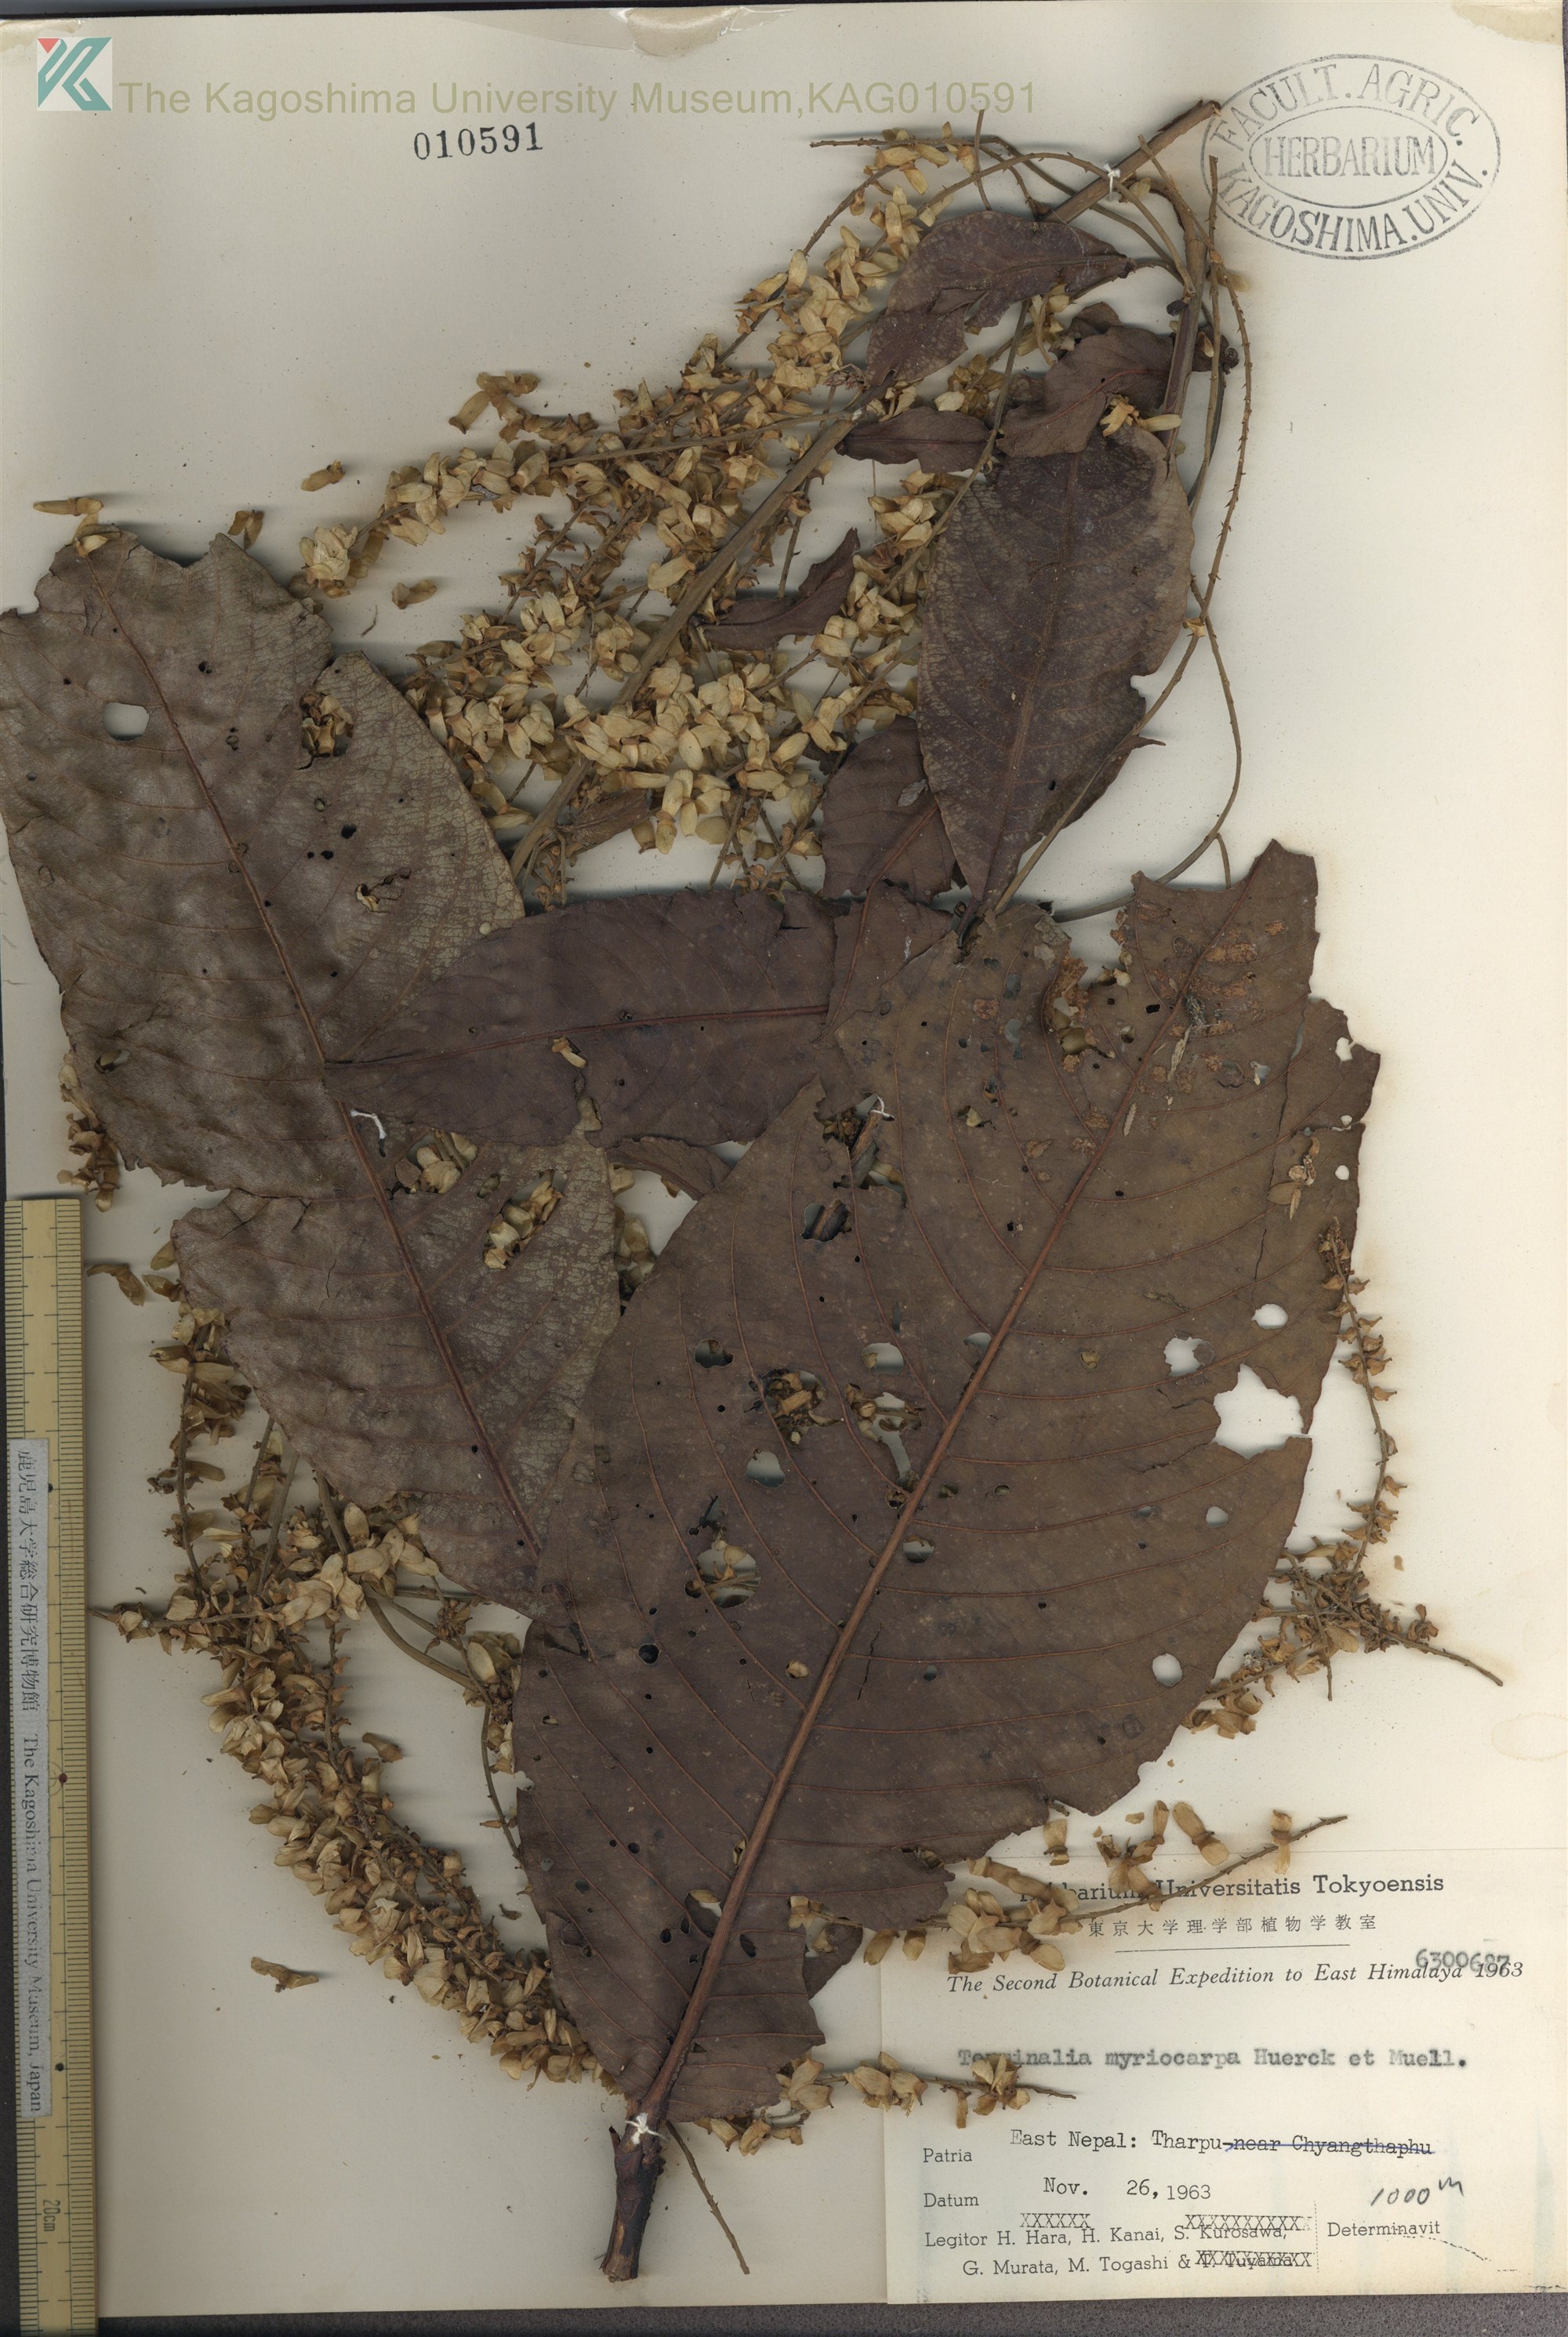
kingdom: Plantae
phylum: Tracheophyta
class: Magnoliopsida
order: Myrtales
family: Combretaceae
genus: Terminalia
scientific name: Terminalia myriocarpa
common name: Hollock
